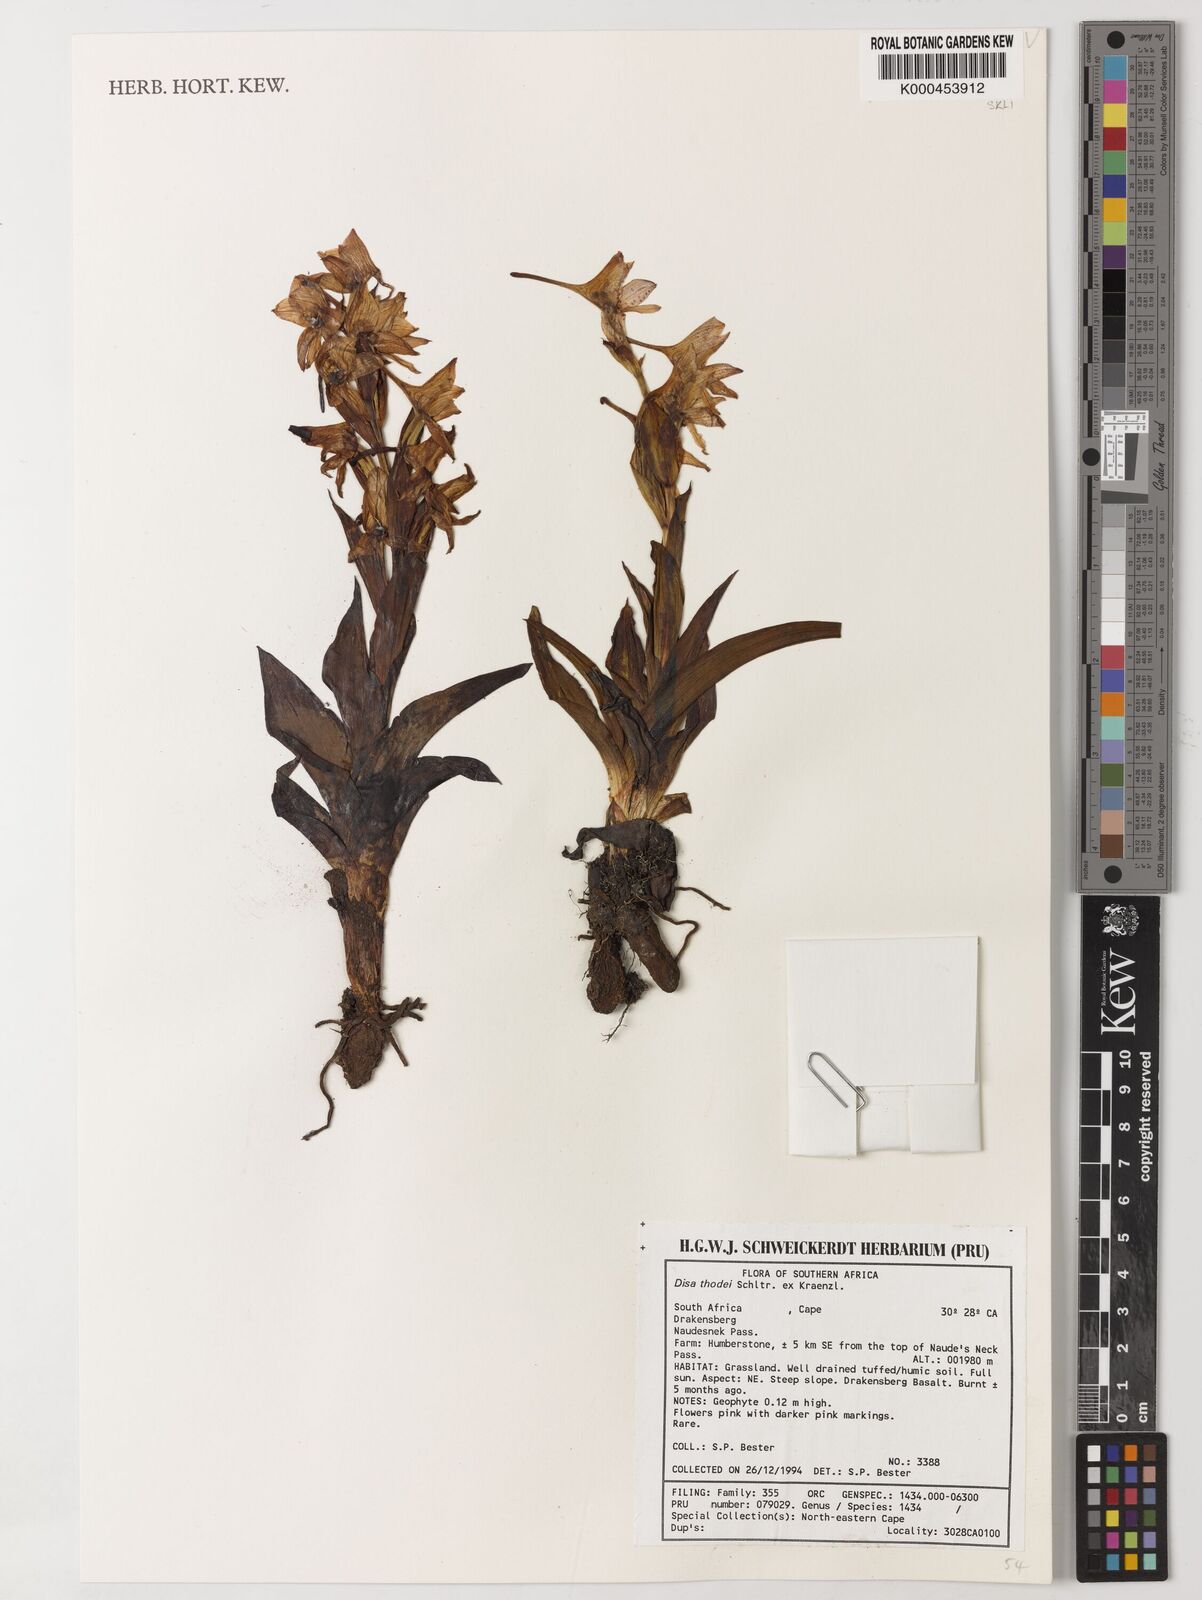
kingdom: Plantae
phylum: Tracheophyta
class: Liliopsida
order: Asparagales
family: Orchidaceae
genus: Disa
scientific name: Disa thodei
